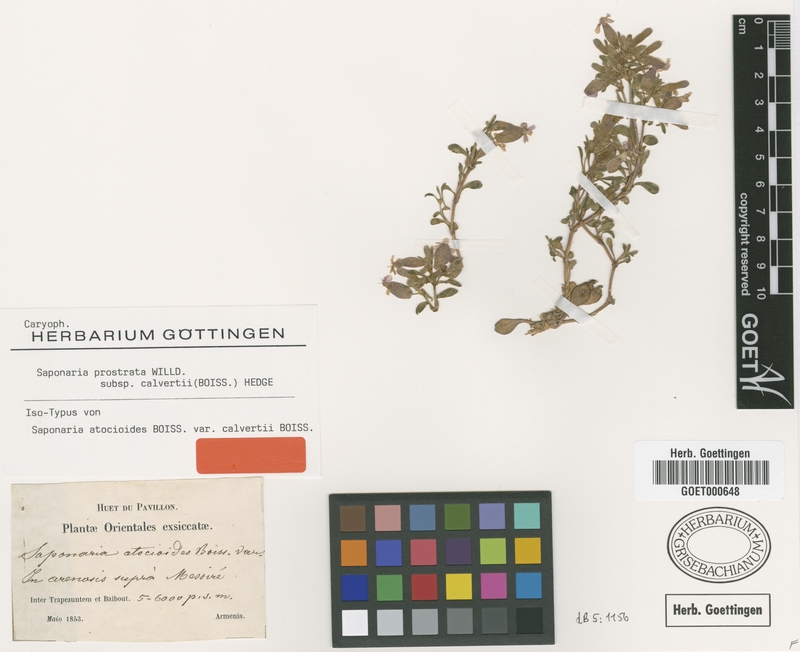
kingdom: Plantae
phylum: Tracheophyta
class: Magnoliopsida
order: Caryophyllales
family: Caryophyllaceae
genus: Saponaria
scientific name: Saponaria prostrata
